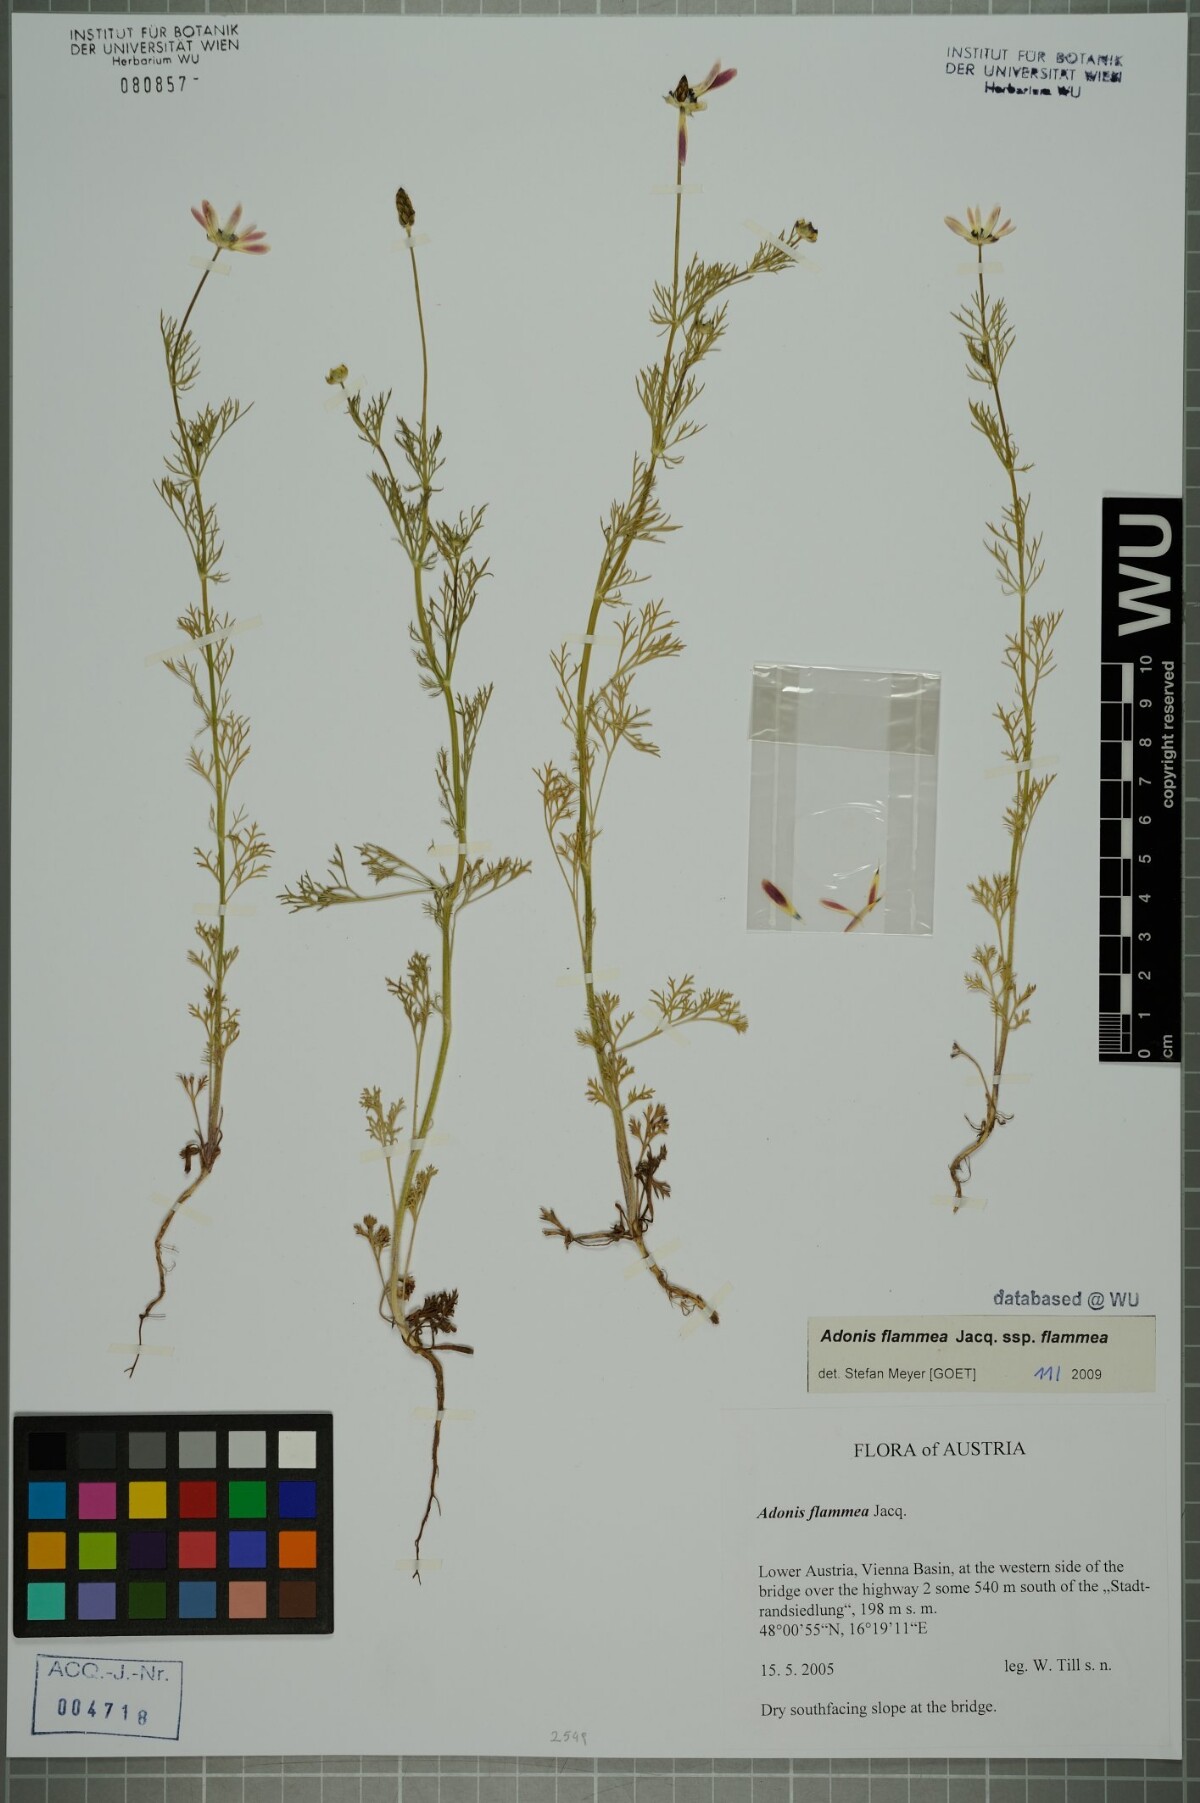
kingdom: Plantae
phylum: Tracheophyta
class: Magnoliopsida
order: Ranunculales
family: Ranunculaceae
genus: Adonis
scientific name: Adonis flammea
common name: Large pheasant's-eye
